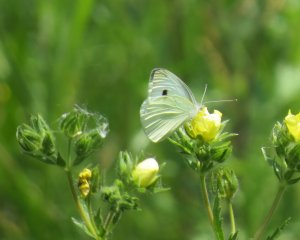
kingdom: Animalia
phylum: Arthropoda
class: Insecta
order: Lepidoptera
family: Pieridae
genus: Pieris
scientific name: Pieris rapae
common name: Cabbage White
